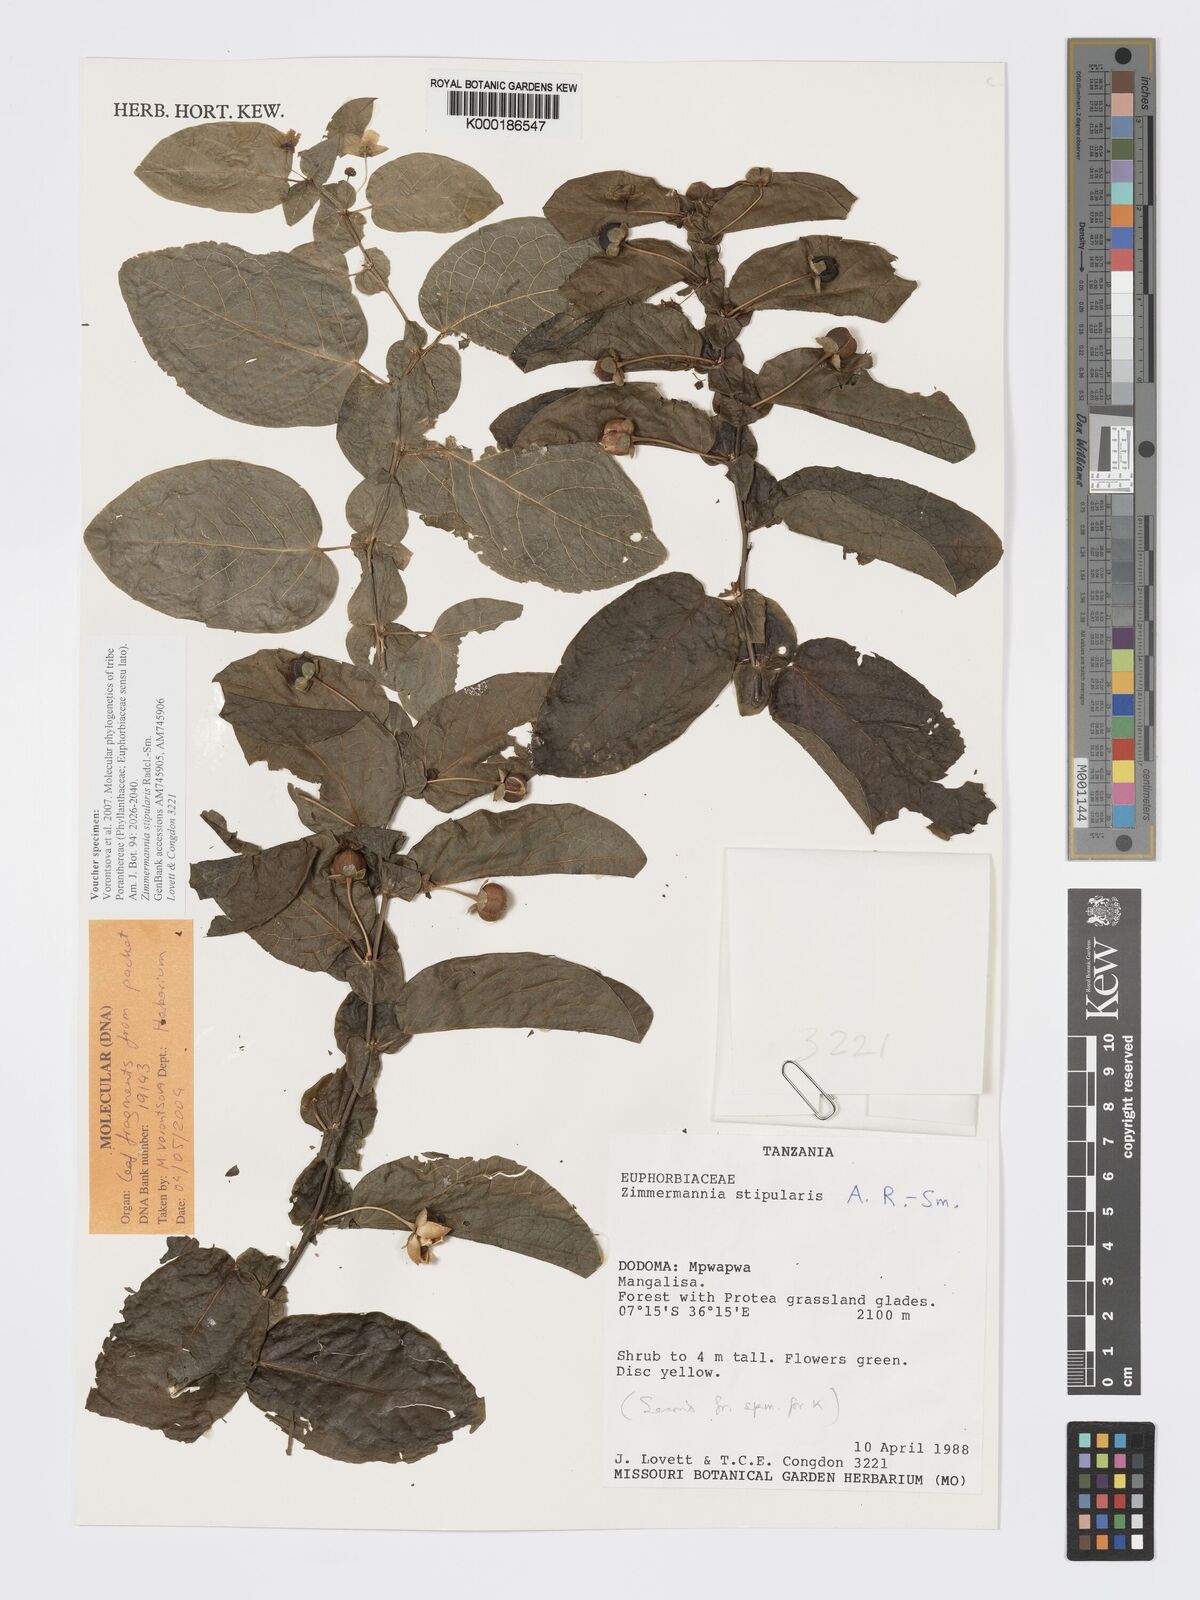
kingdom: Plantae
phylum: Tracheophyta
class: Magnoliopsida
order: Malpighiales
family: Phyllanthaceae
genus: Meineckia
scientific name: Meineckia stipularis
